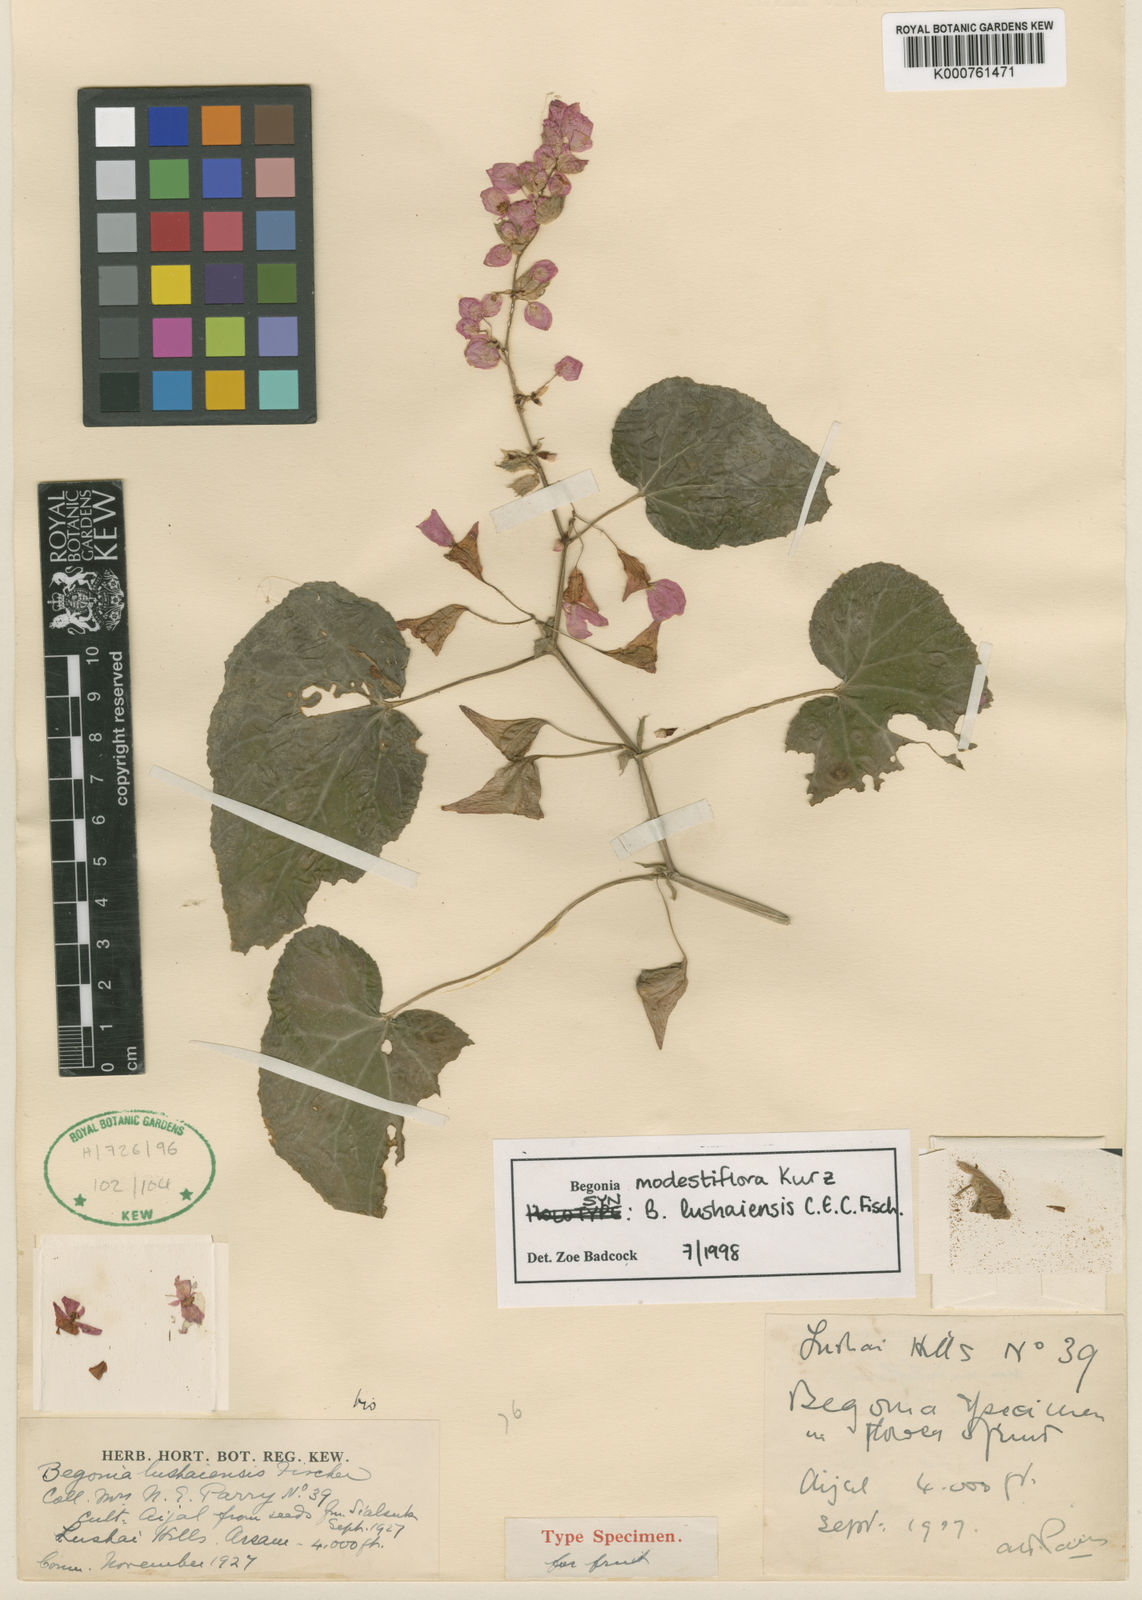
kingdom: Plantae
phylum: Tracheophyta
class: Magnoliopsida
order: Cucurbitales
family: Begoniaceae
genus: Begonia
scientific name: Begonia modestiflora
